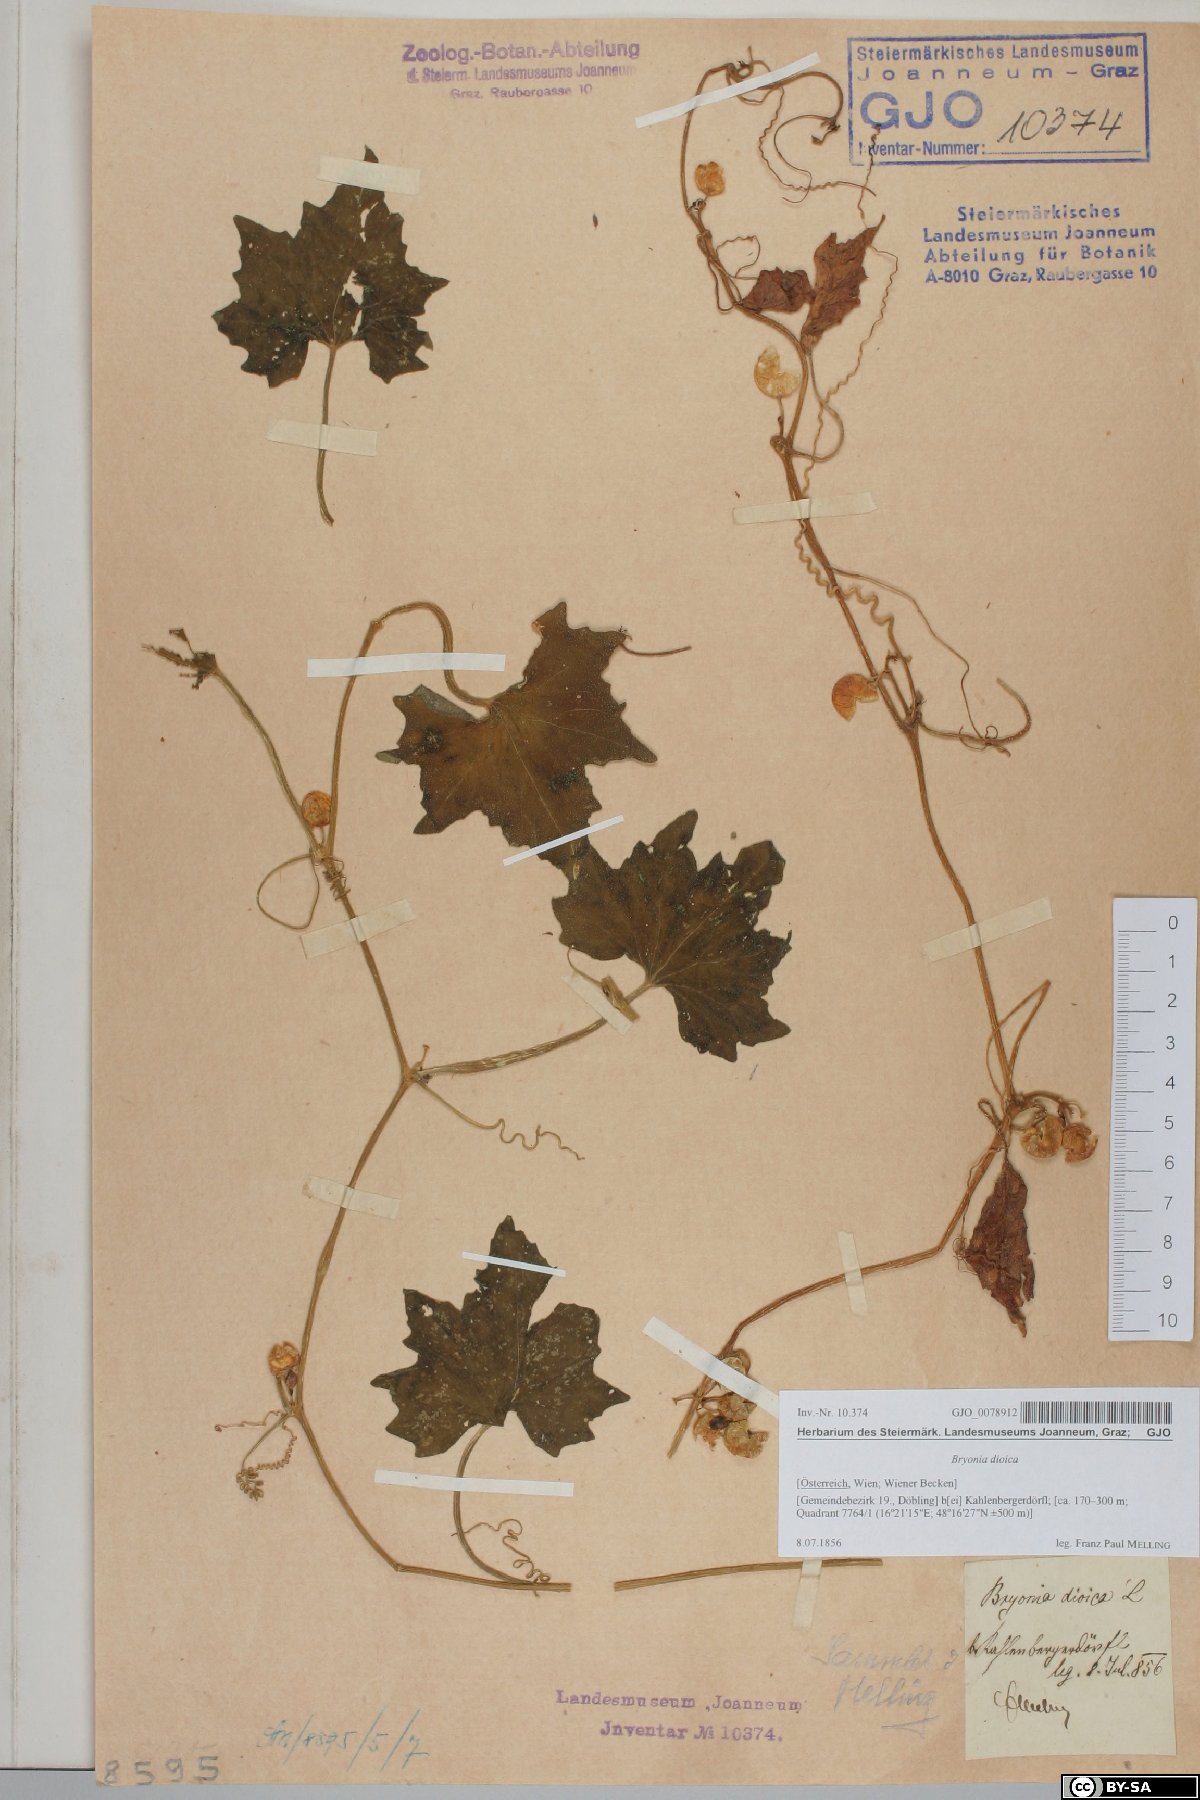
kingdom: Plantae
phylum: Tracheophyta
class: Magnoliopsida
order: Cucurbitales
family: Cucurbitaceae
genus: Bryonia
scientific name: Bryonia dioica
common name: White bryony
